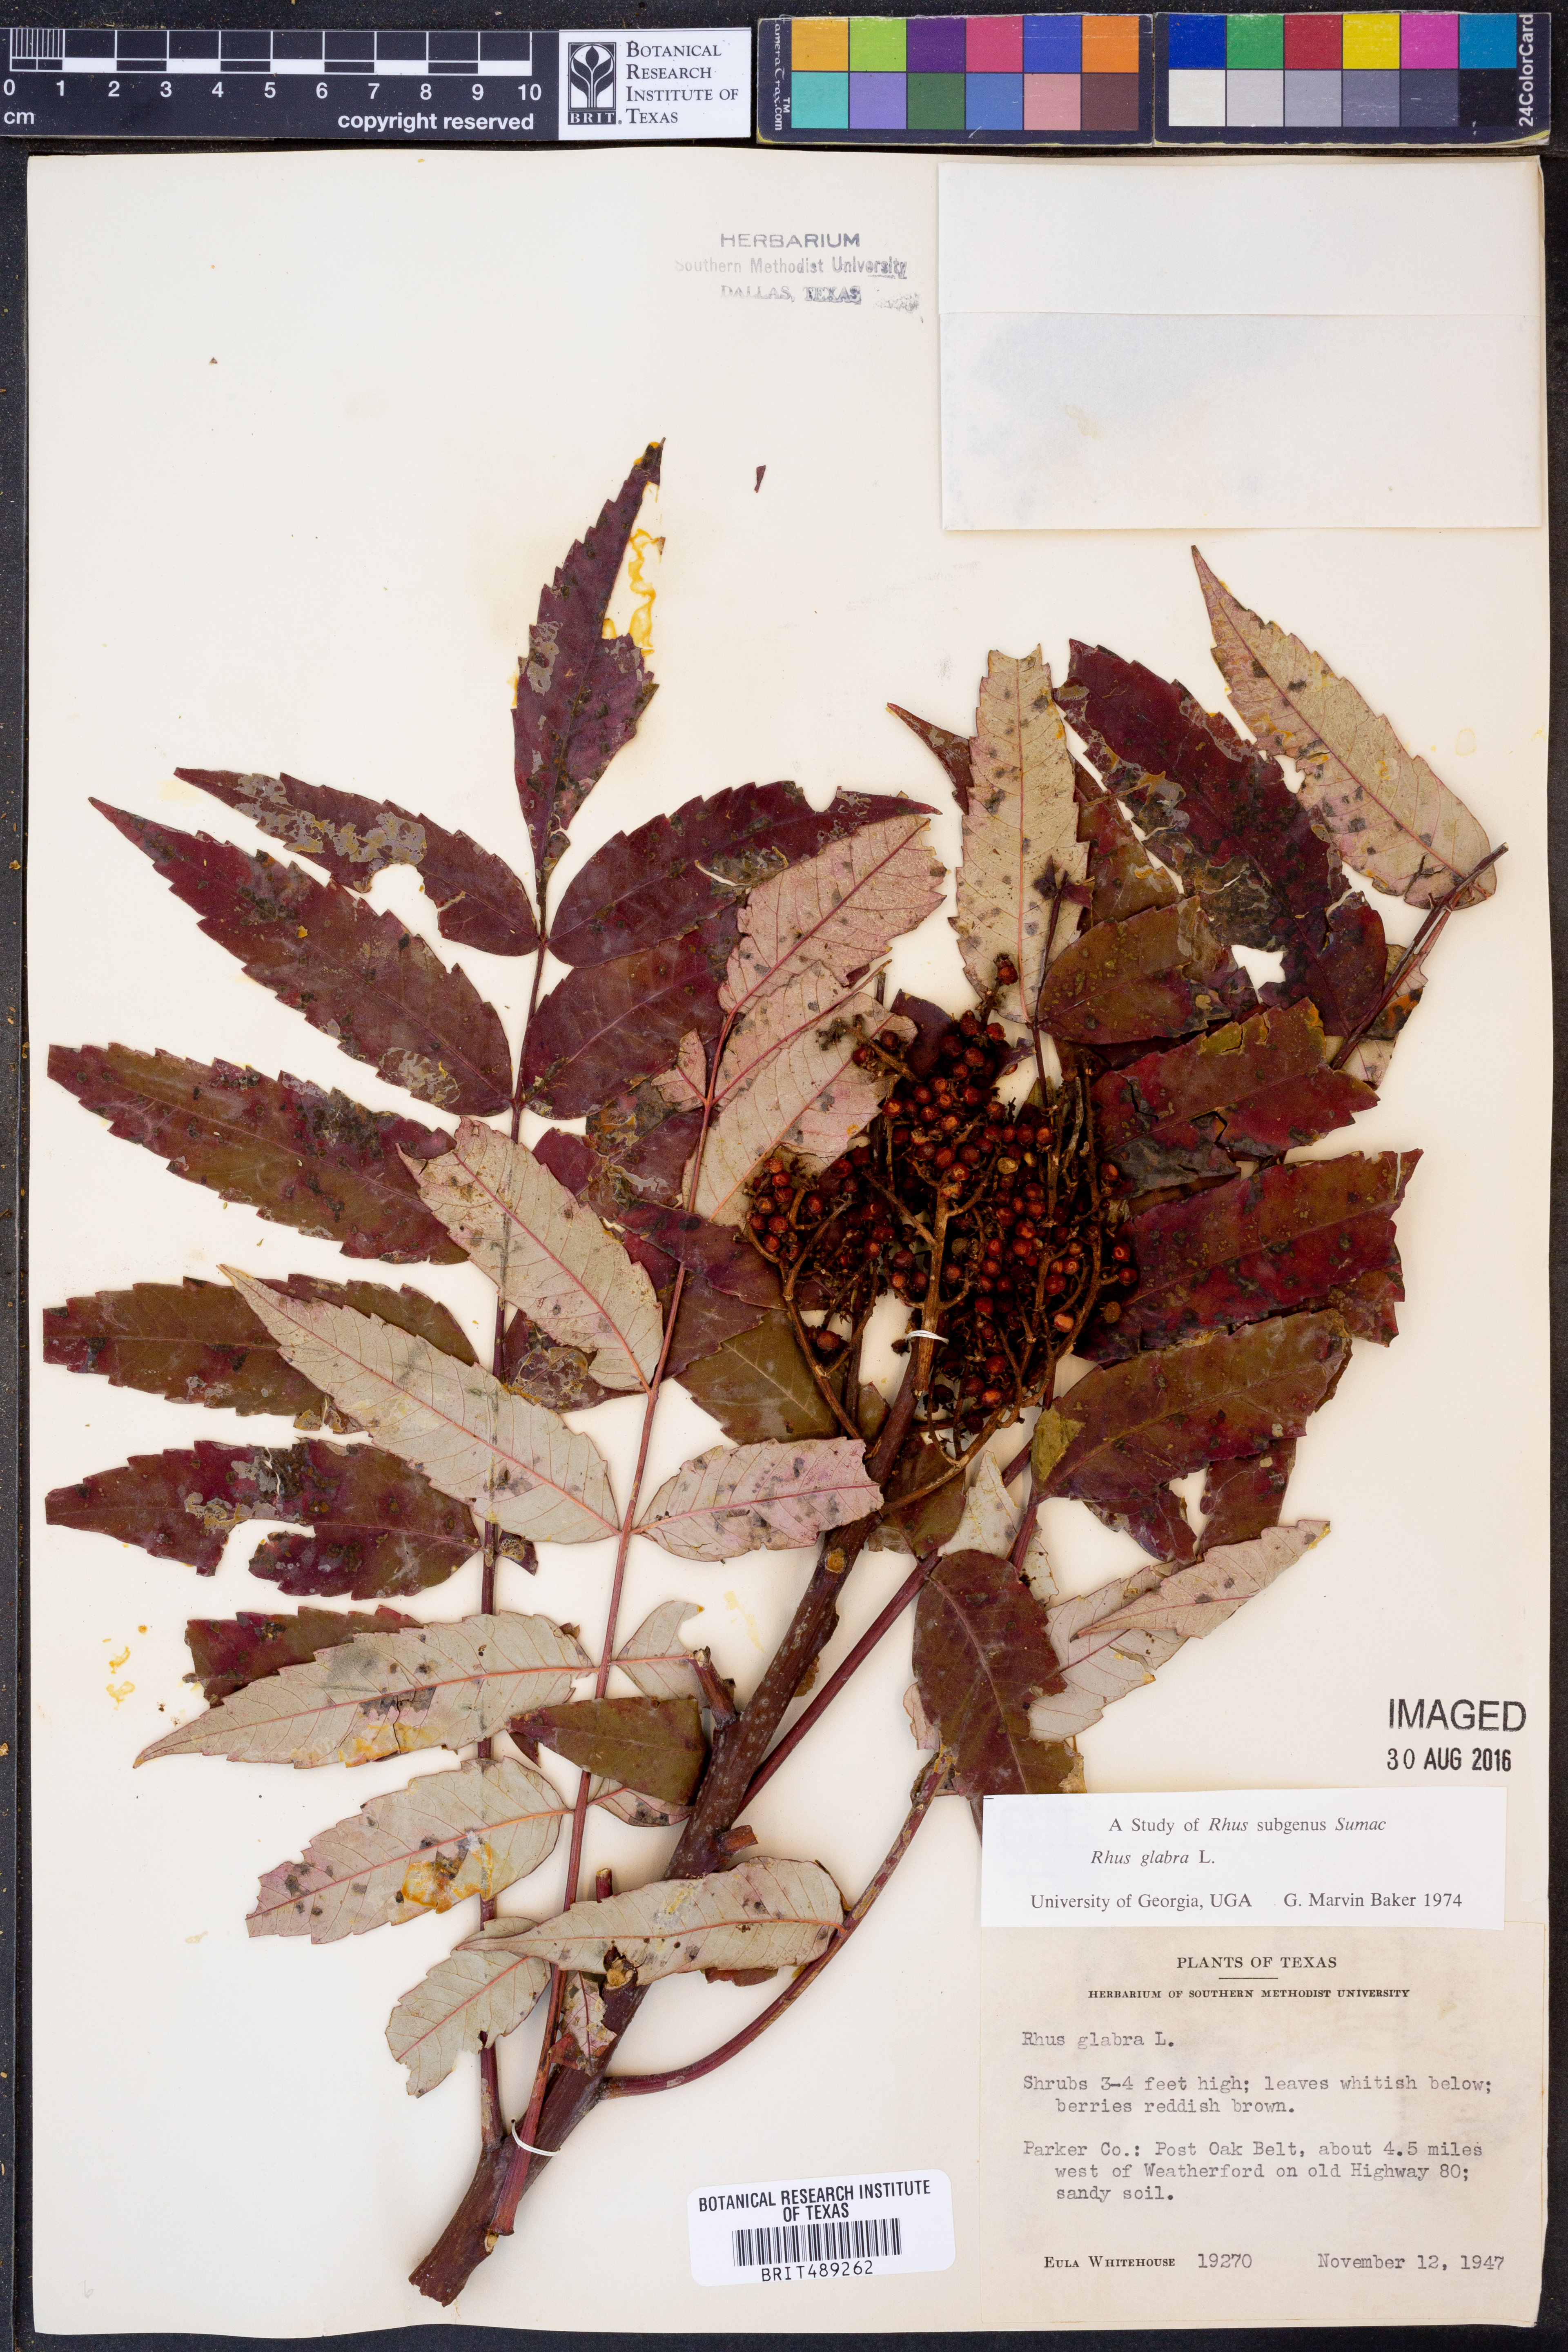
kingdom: Plantae
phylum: Tracheophyta
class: Magnoliopsida
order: Sapindales
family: Anacardiaceae
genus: Rhus
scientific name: Rhus glabra
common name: Scarlet sumac
